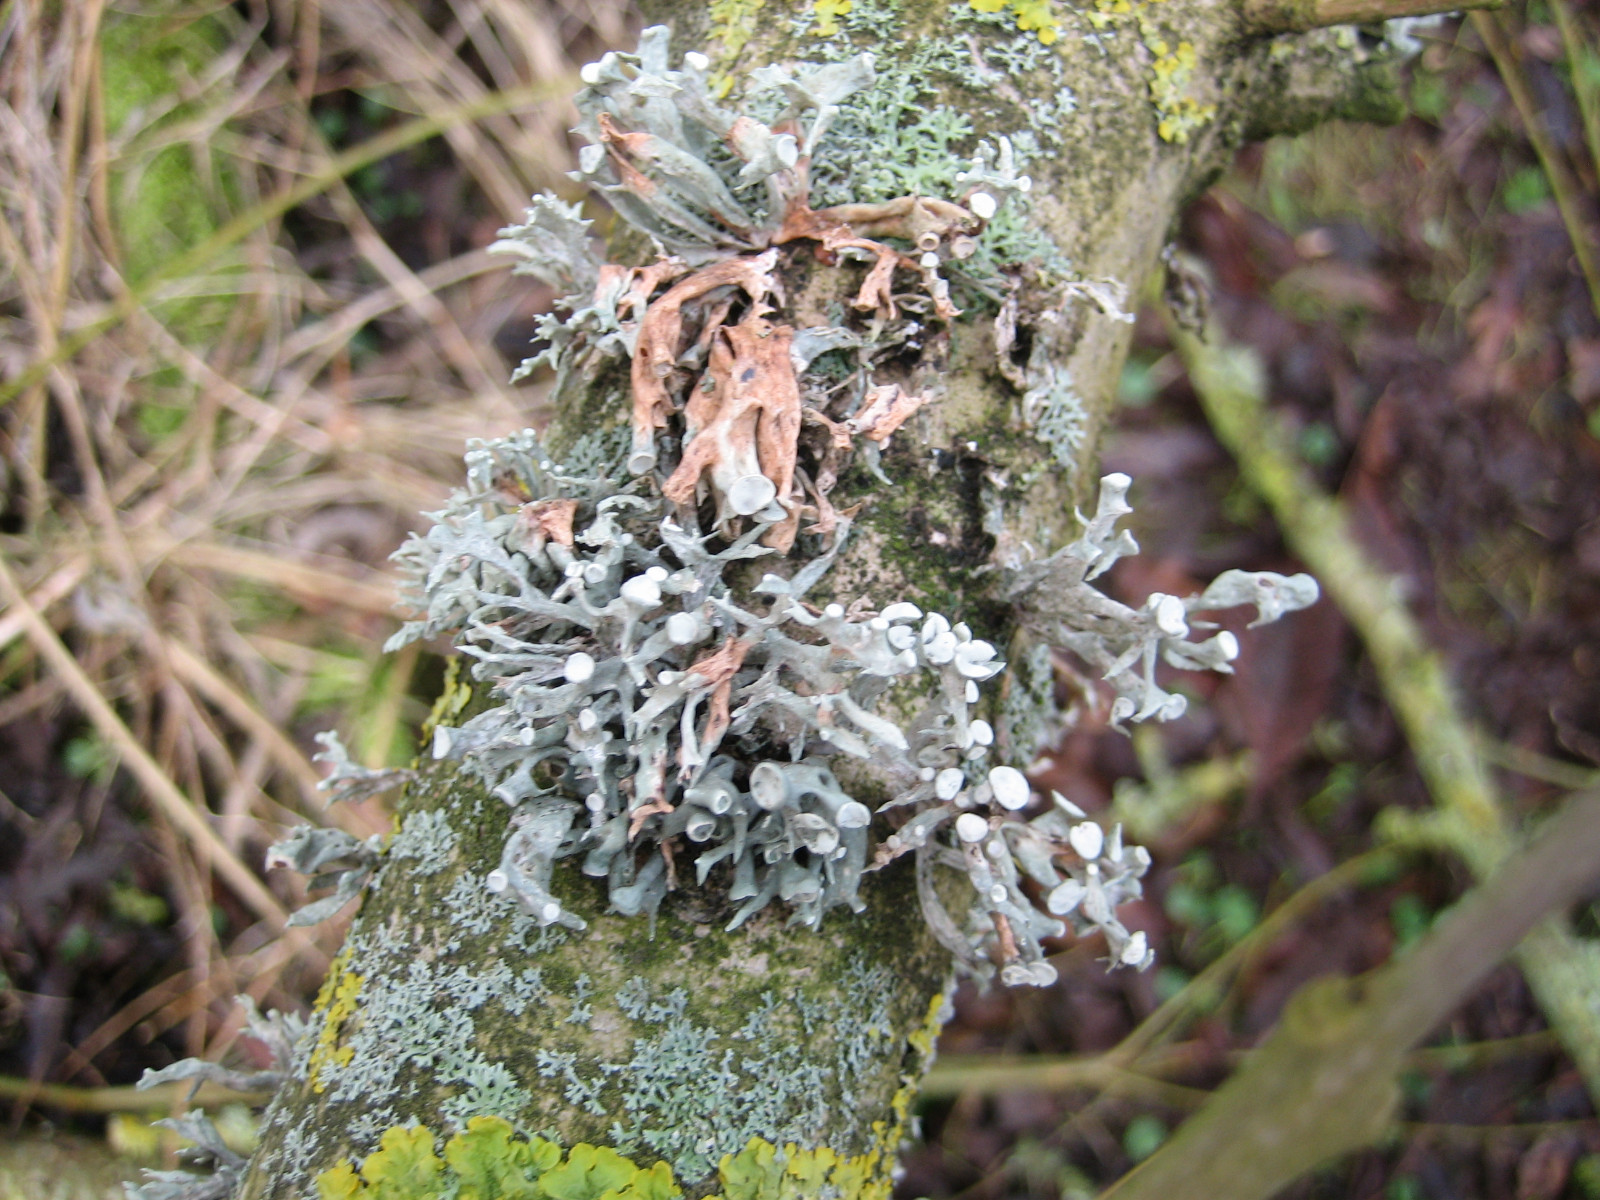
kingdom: Fungi
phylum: Ascomycota
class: Lecanoromycetes
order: Lecanorales
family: Ramalinaceae
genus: Ramalina
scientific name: Ramalina fastigiata
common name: tue-grenlav
